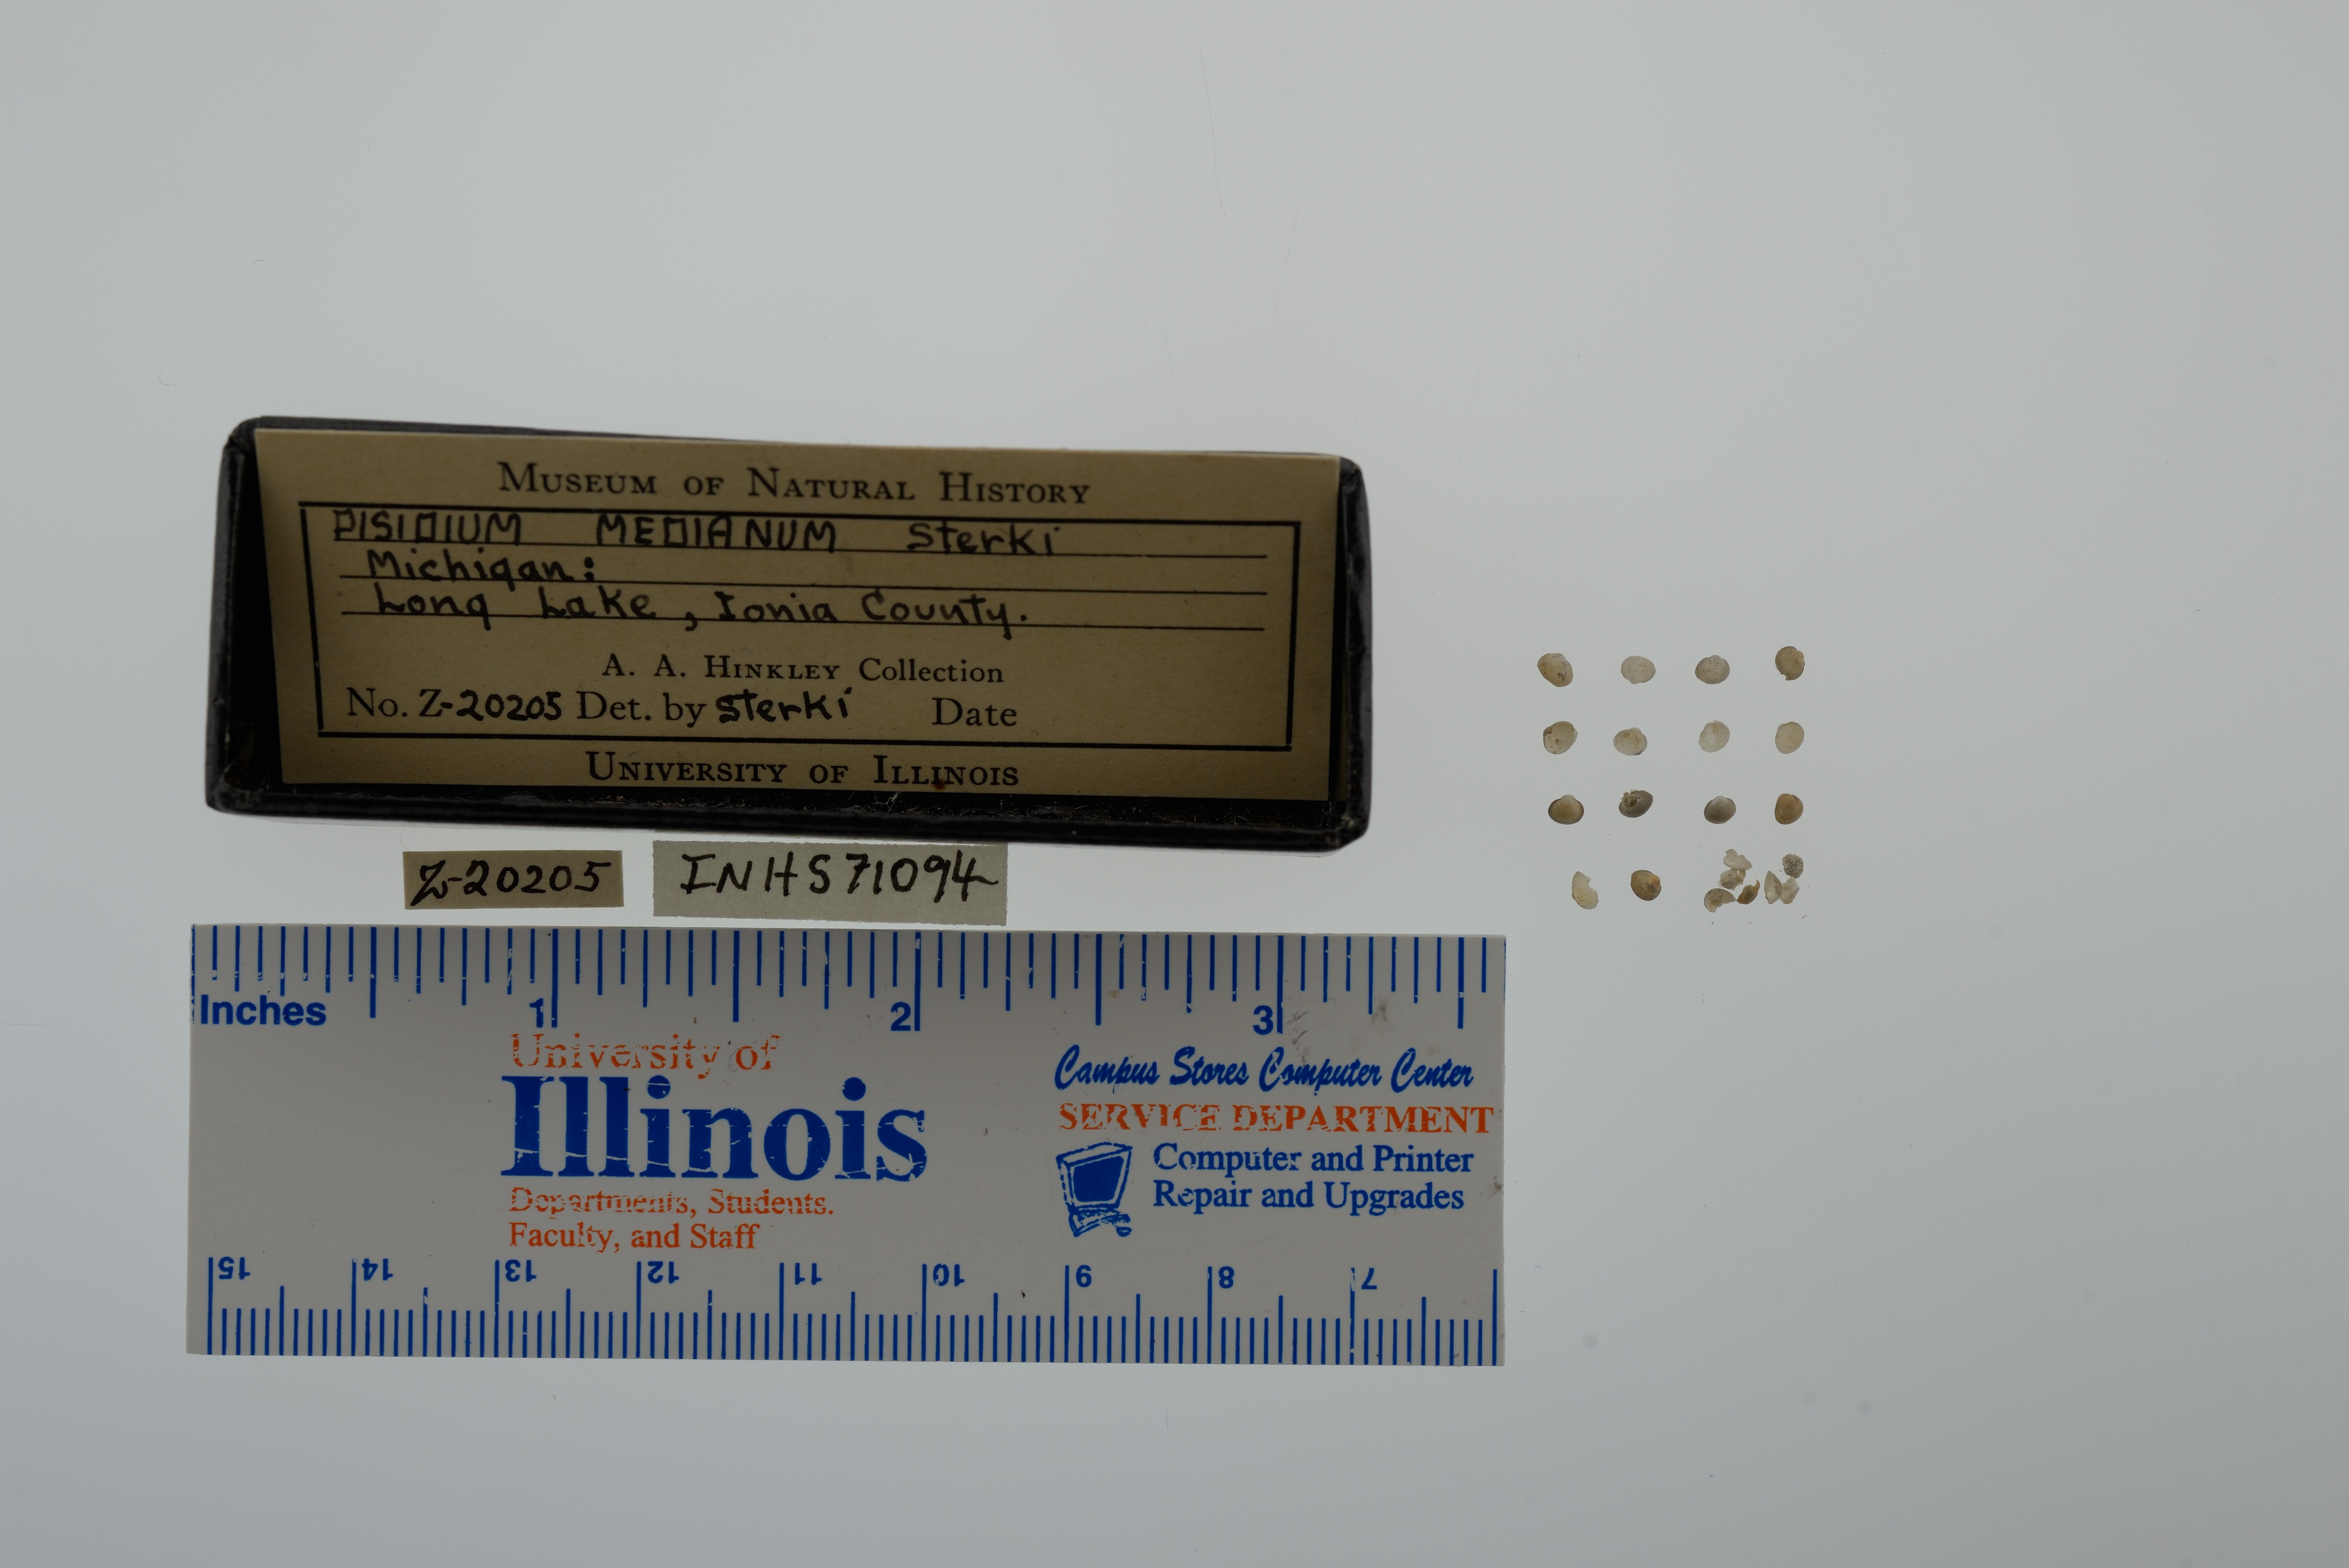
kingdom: Animalia
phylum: Mollusca
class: Bivalvia
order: Sphaeriida
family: Sphaeriidae
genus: Euglesa
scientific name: Euglesa ferruginea
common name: Rusty peaclam
